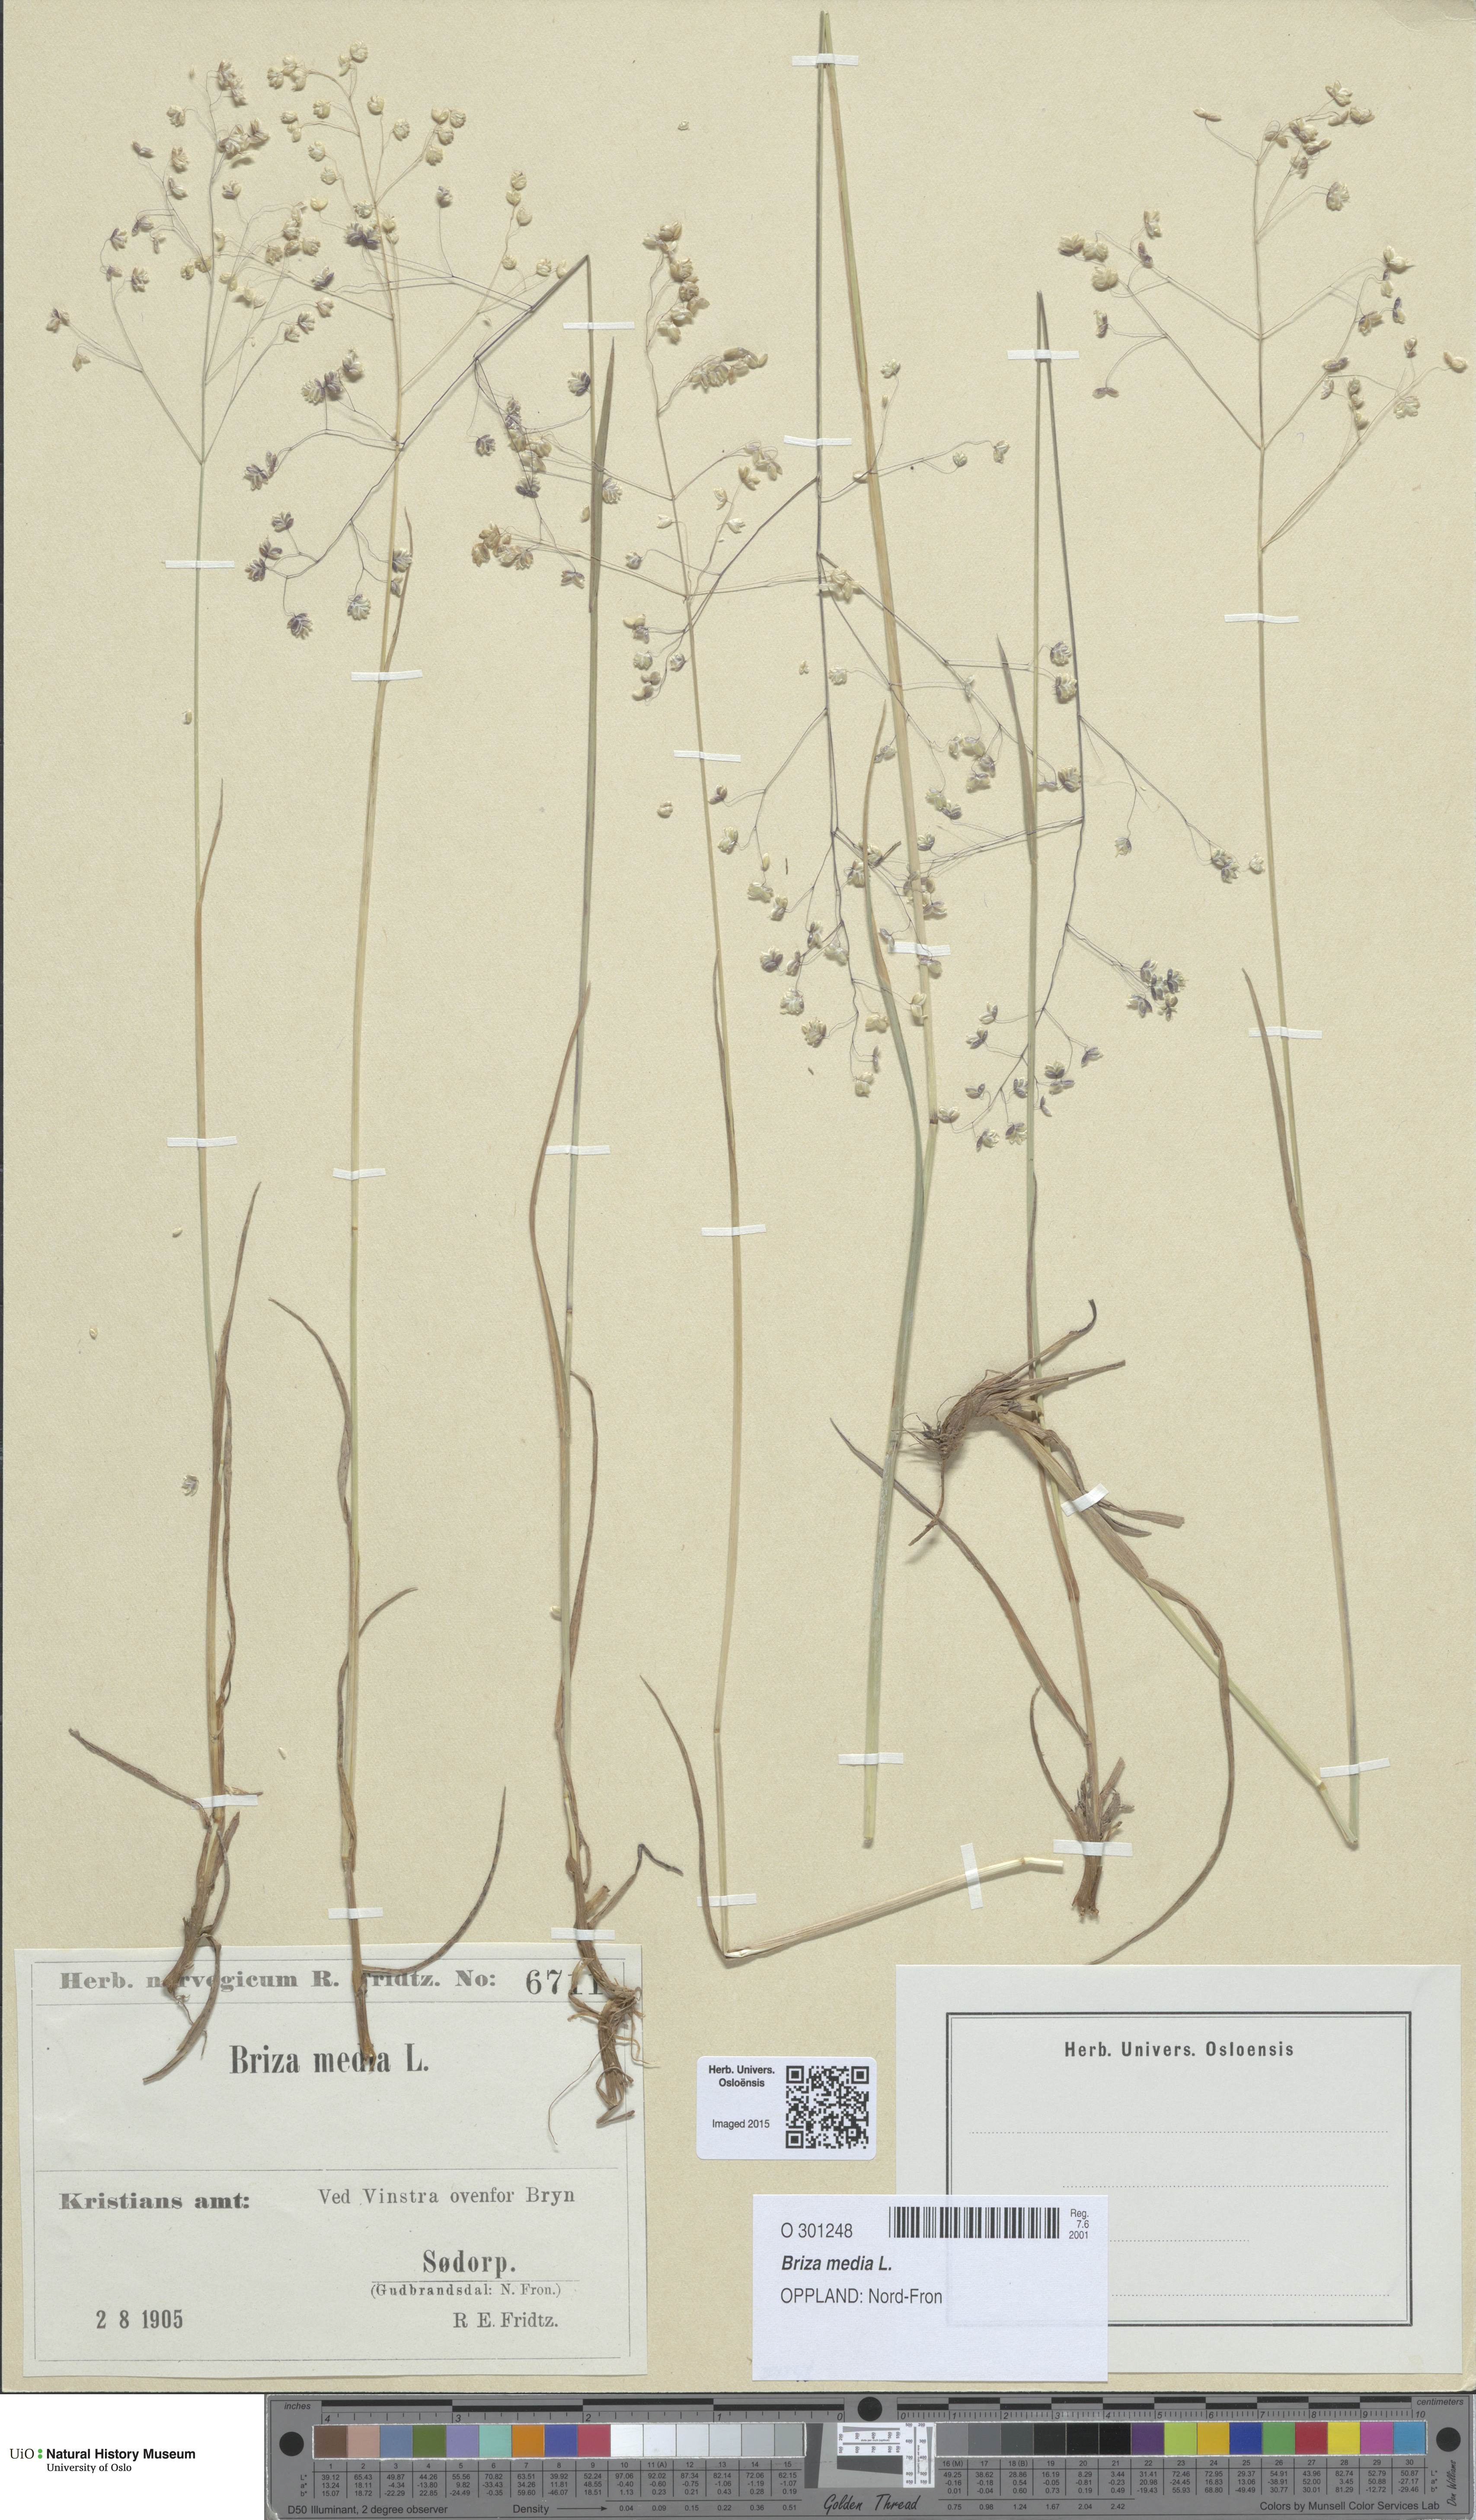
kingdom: Plantae
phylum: Tracheophyta
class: Liliopsida
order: Poales
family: Poaceae
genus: Briza
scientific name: Briza media
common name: Quaking grass
